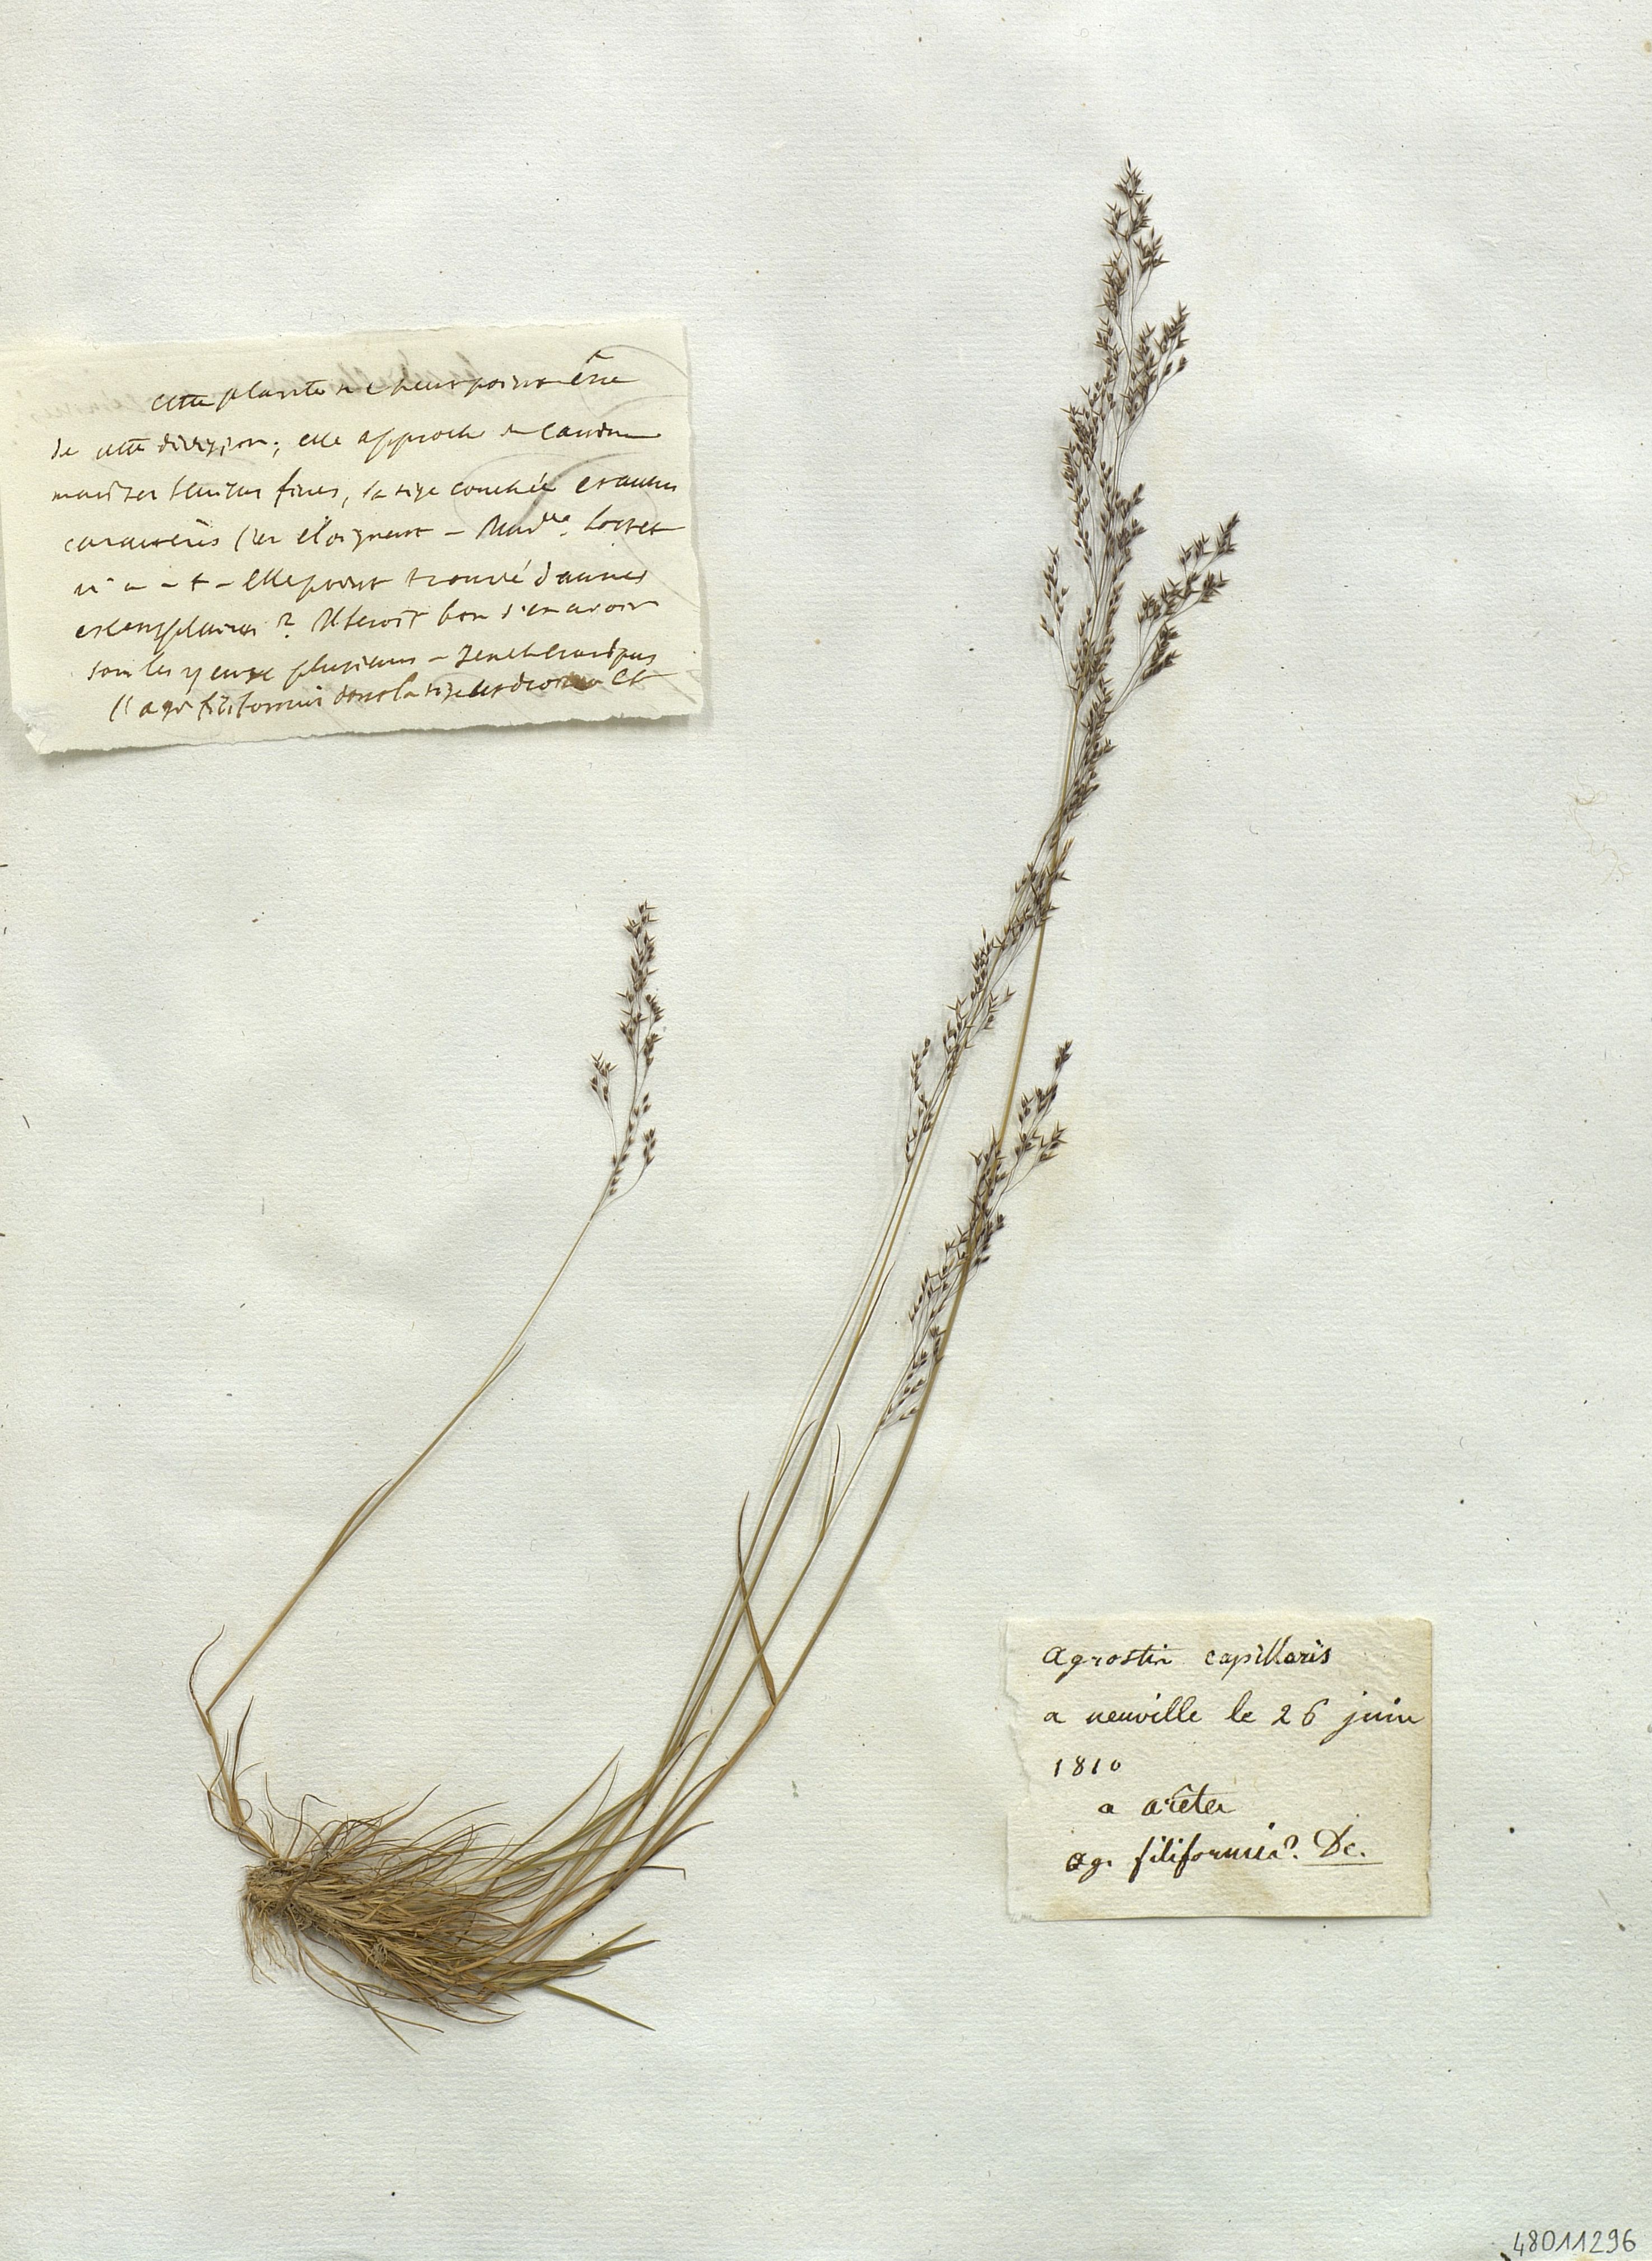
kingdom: Plantae
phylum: Tracheophyta
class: Liliopsida
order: Poales
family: Poaceae
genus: Agrostis
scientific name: Agrostis capillaris
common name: Colonial bentgrass
